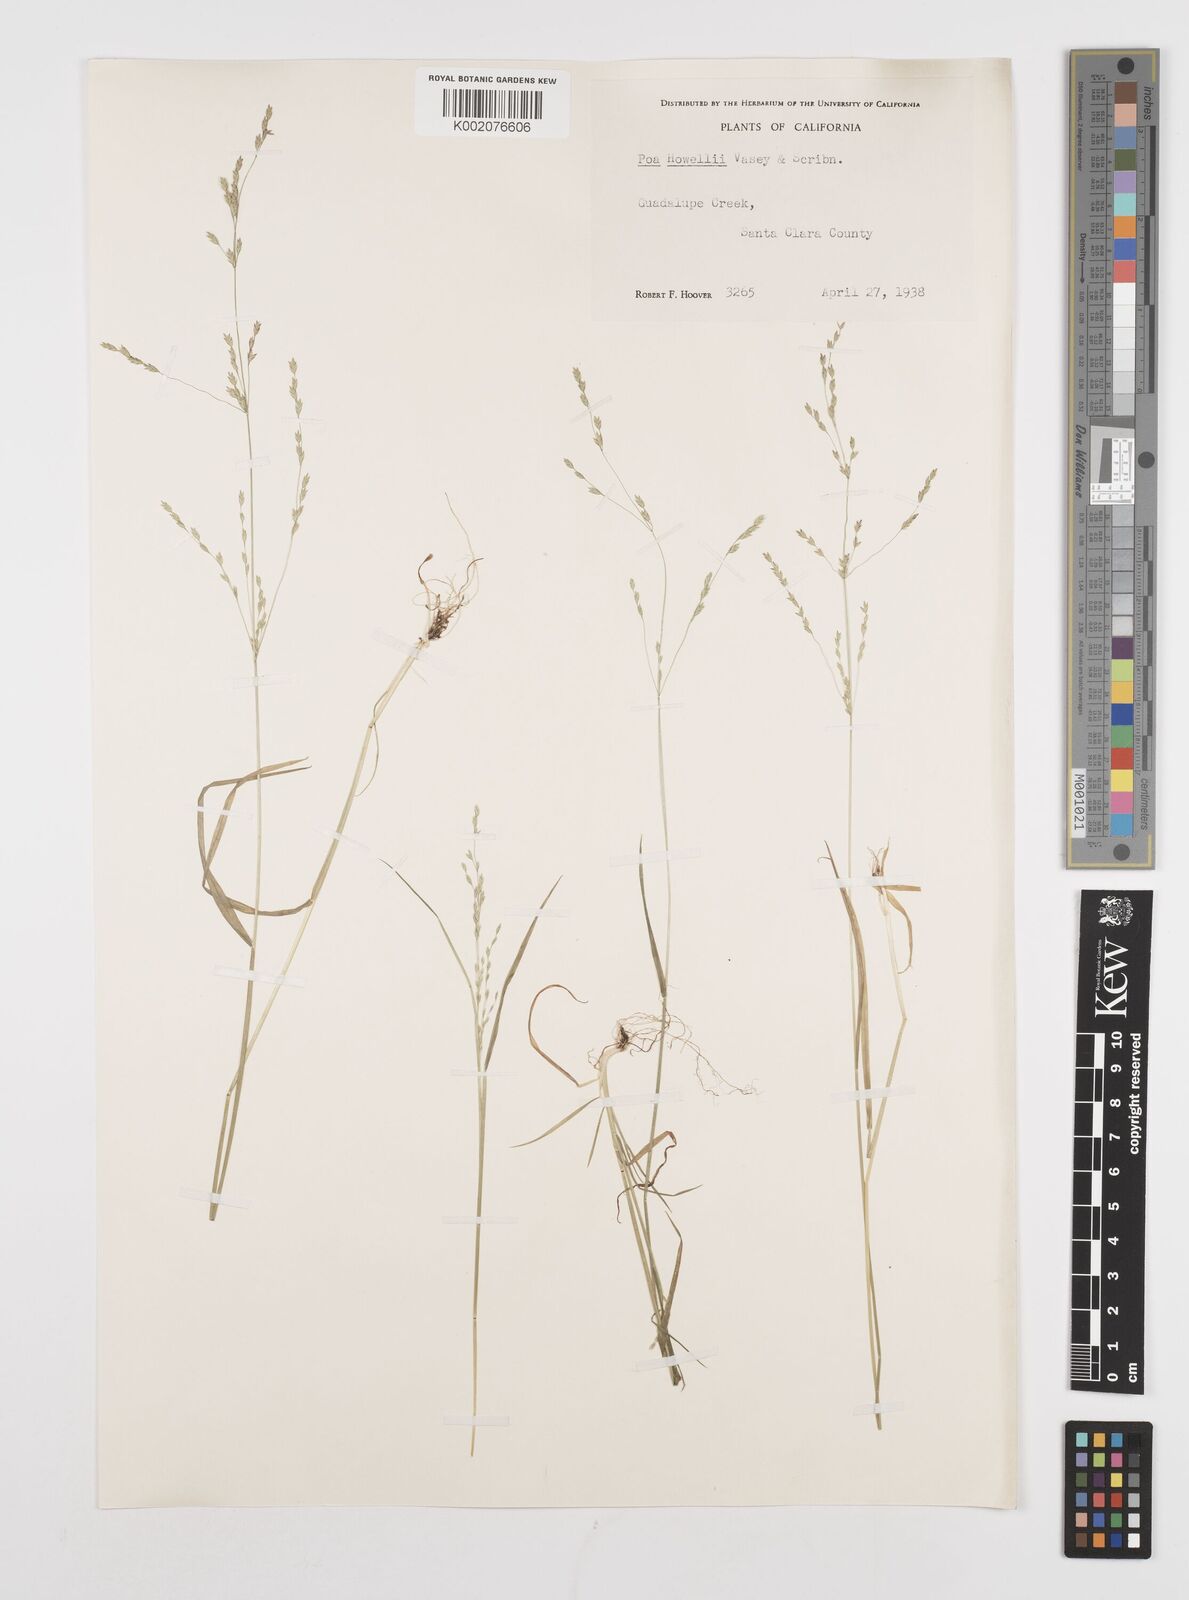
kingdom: Plantae
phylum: Tracheophyta
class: Liliopsida
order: Poales
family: Poaceae
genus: Poa
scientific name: Poa howellii
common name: Howell's bluegrass
